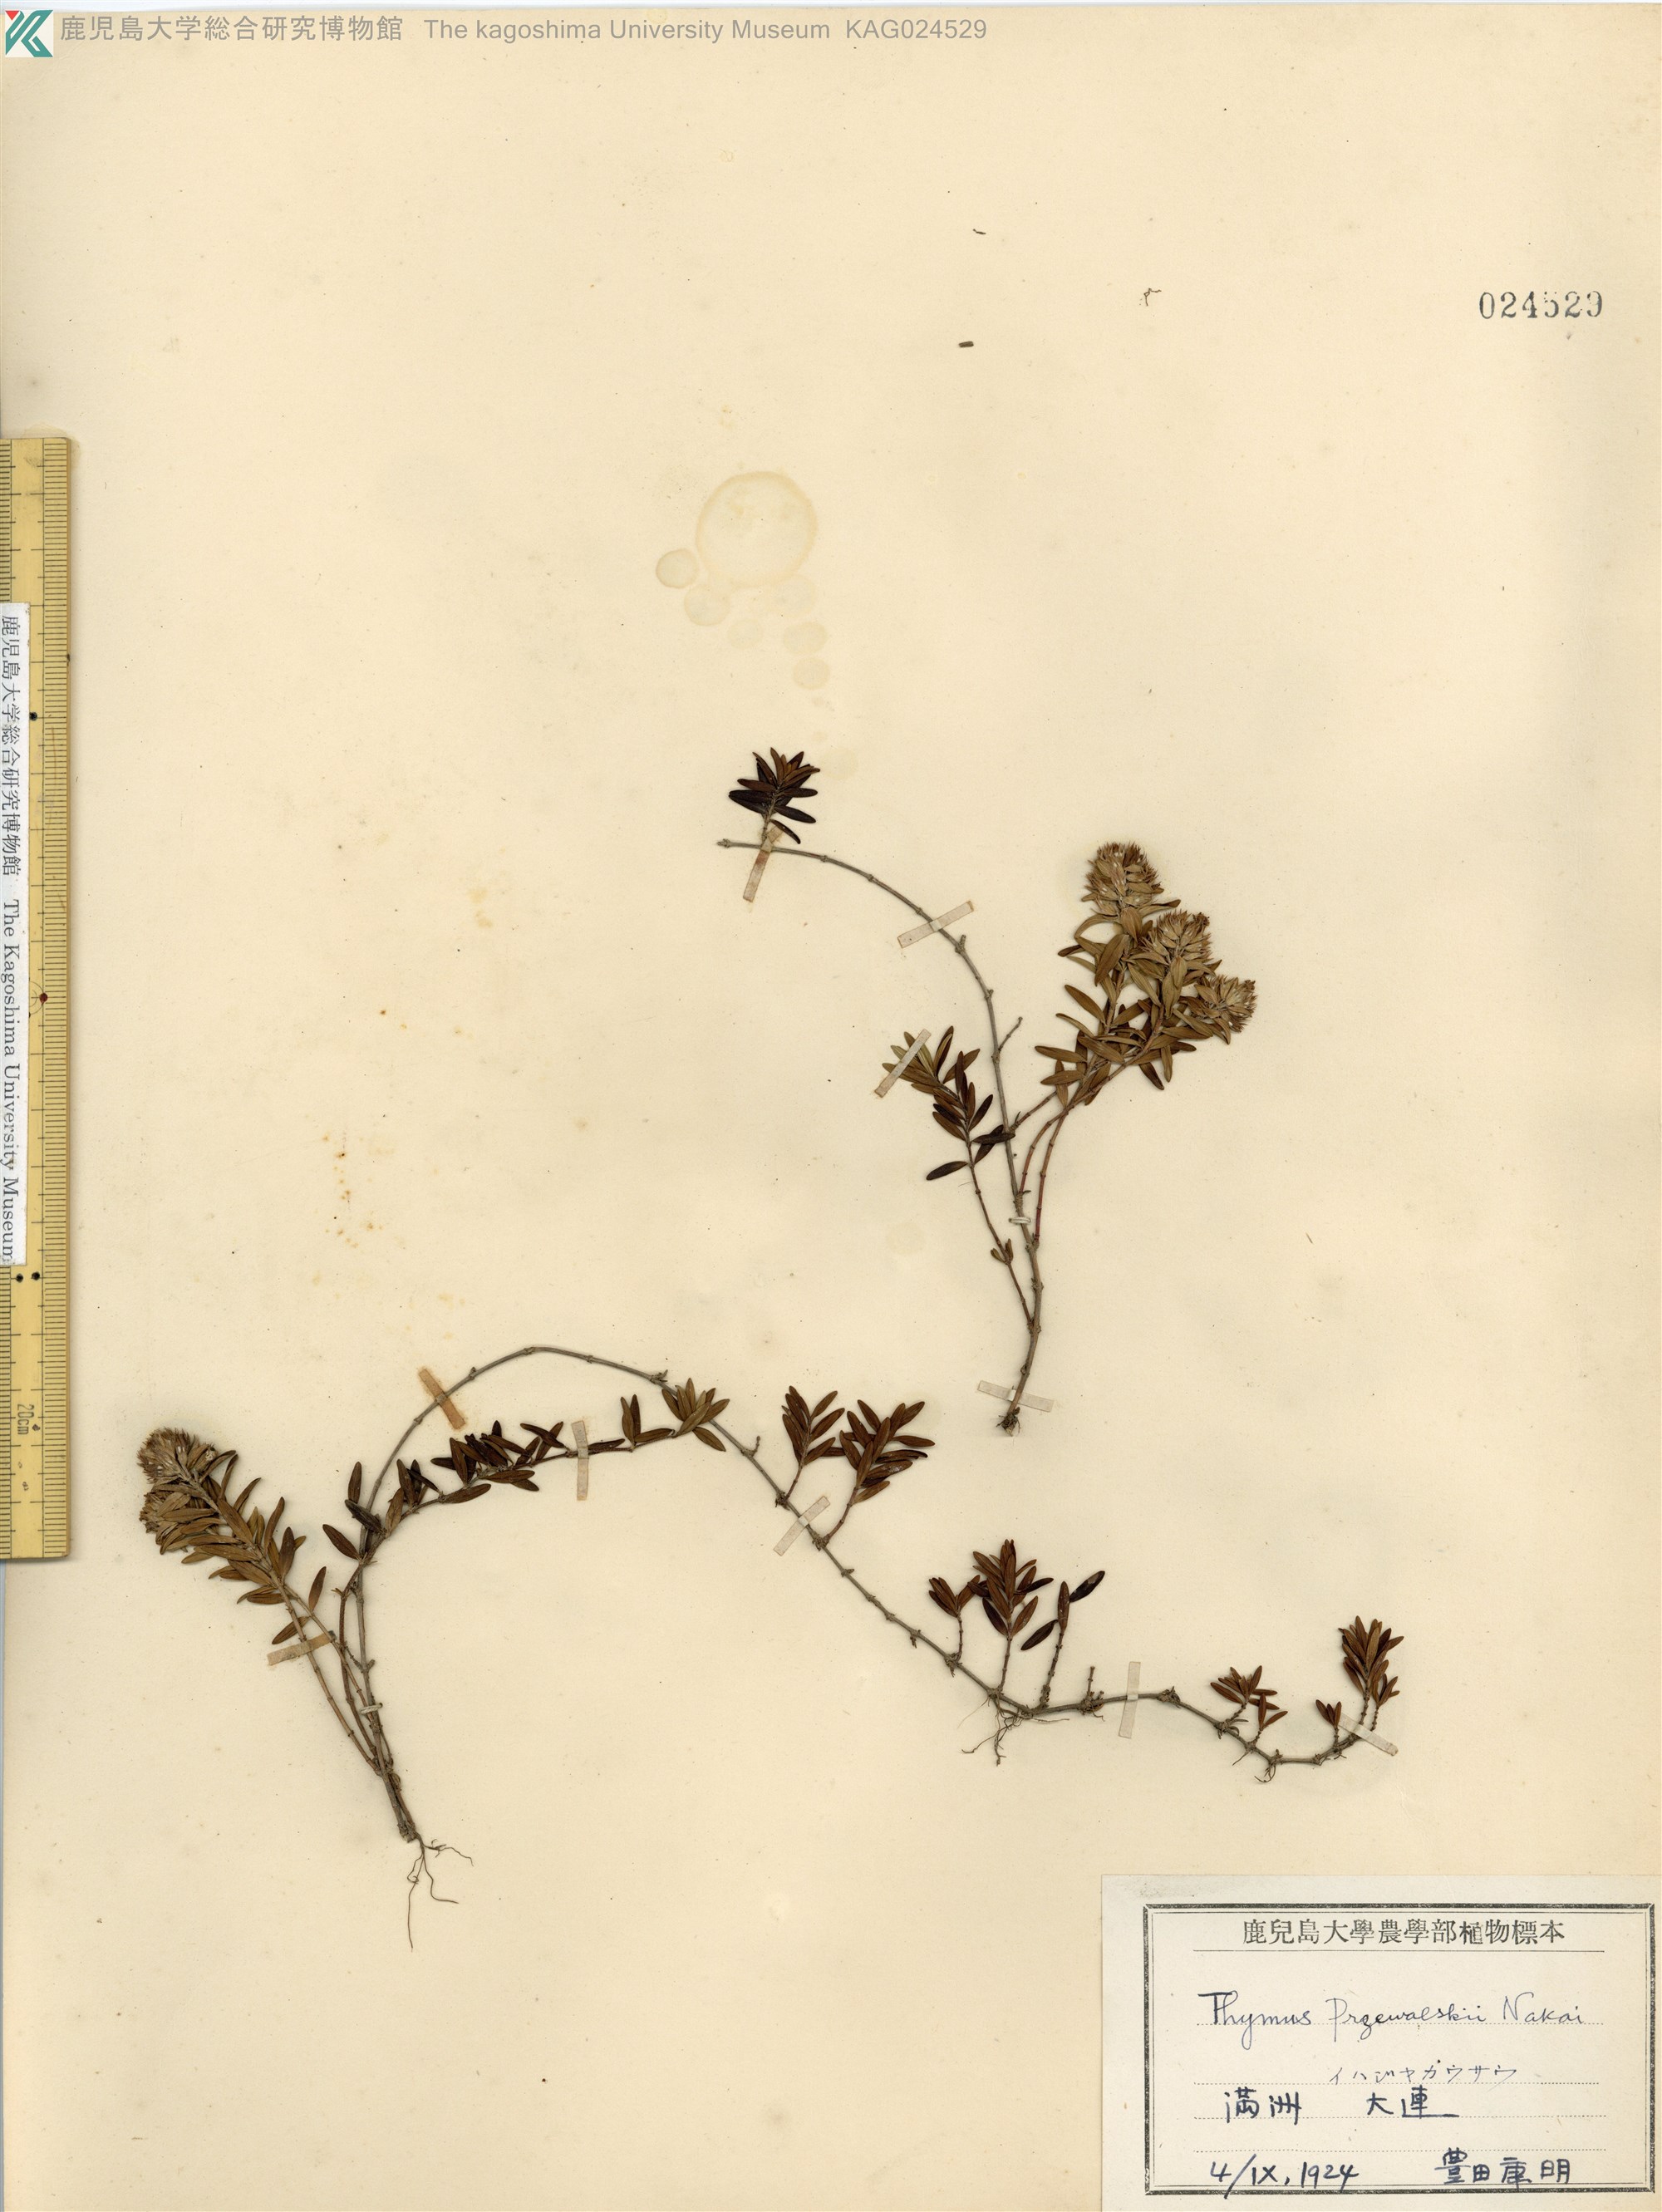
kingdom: Plantae
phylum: Tracheophyta
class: Magnoliopsida
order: Lamiales
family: Lamiaceae
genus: Thymus
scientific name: Thymus quinquecostatus
